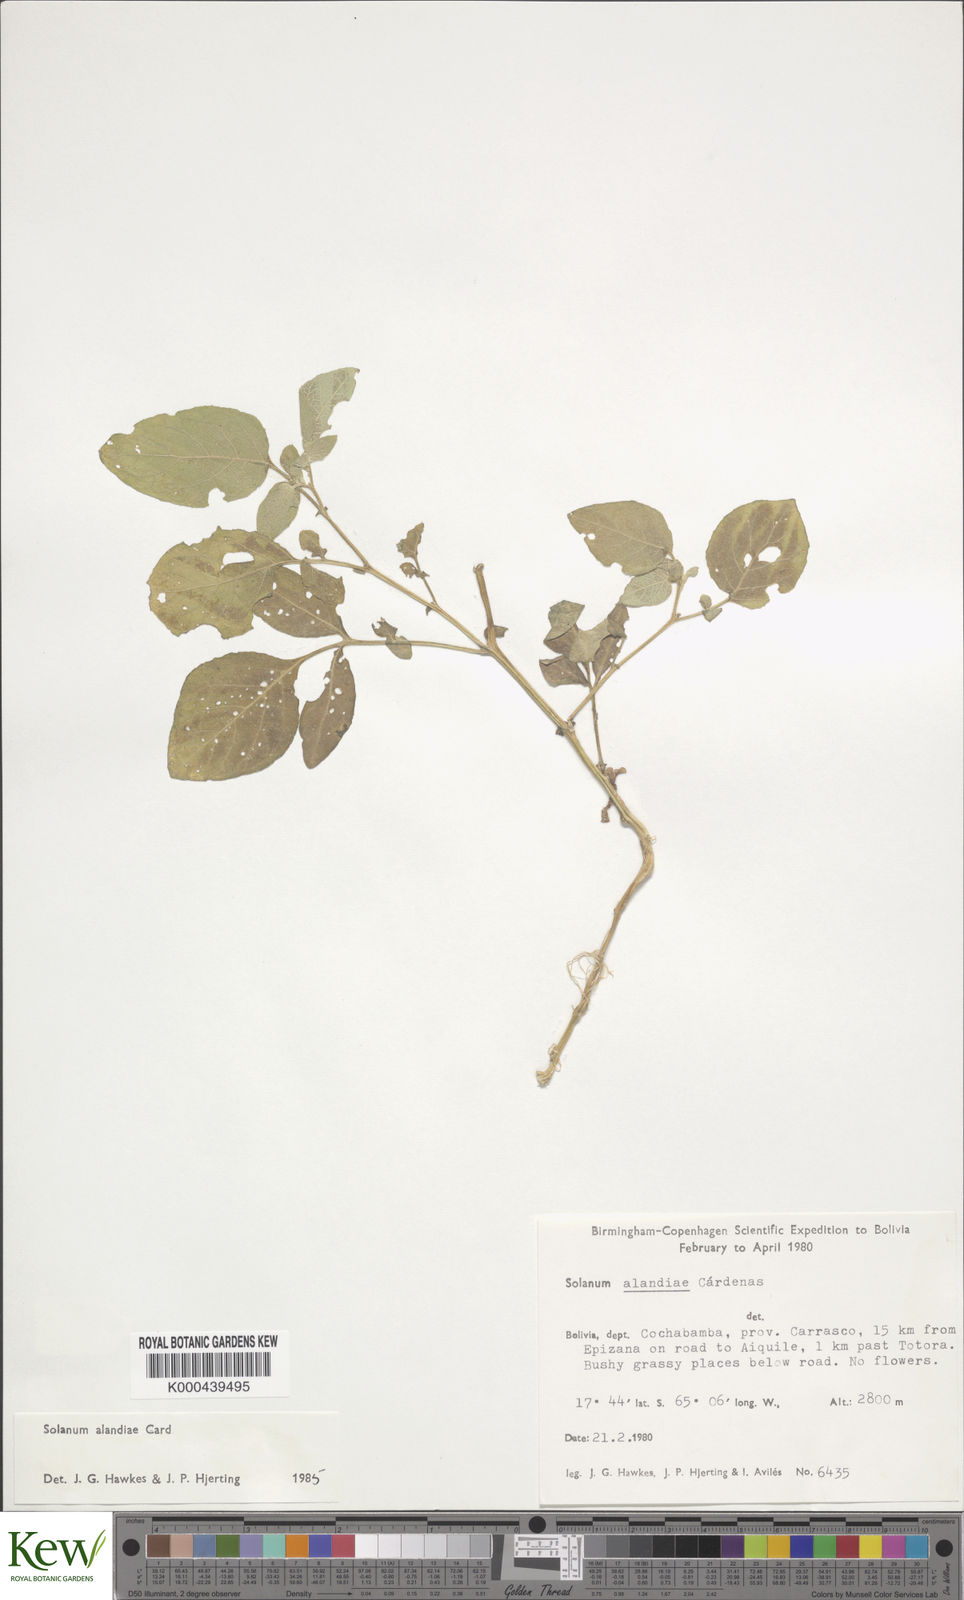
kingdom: Plantae
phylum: Tracheophyta
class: Magnoliopsida
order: Solanales
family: Solanaceae
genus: Solanum
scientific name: Solanum brevicaule
